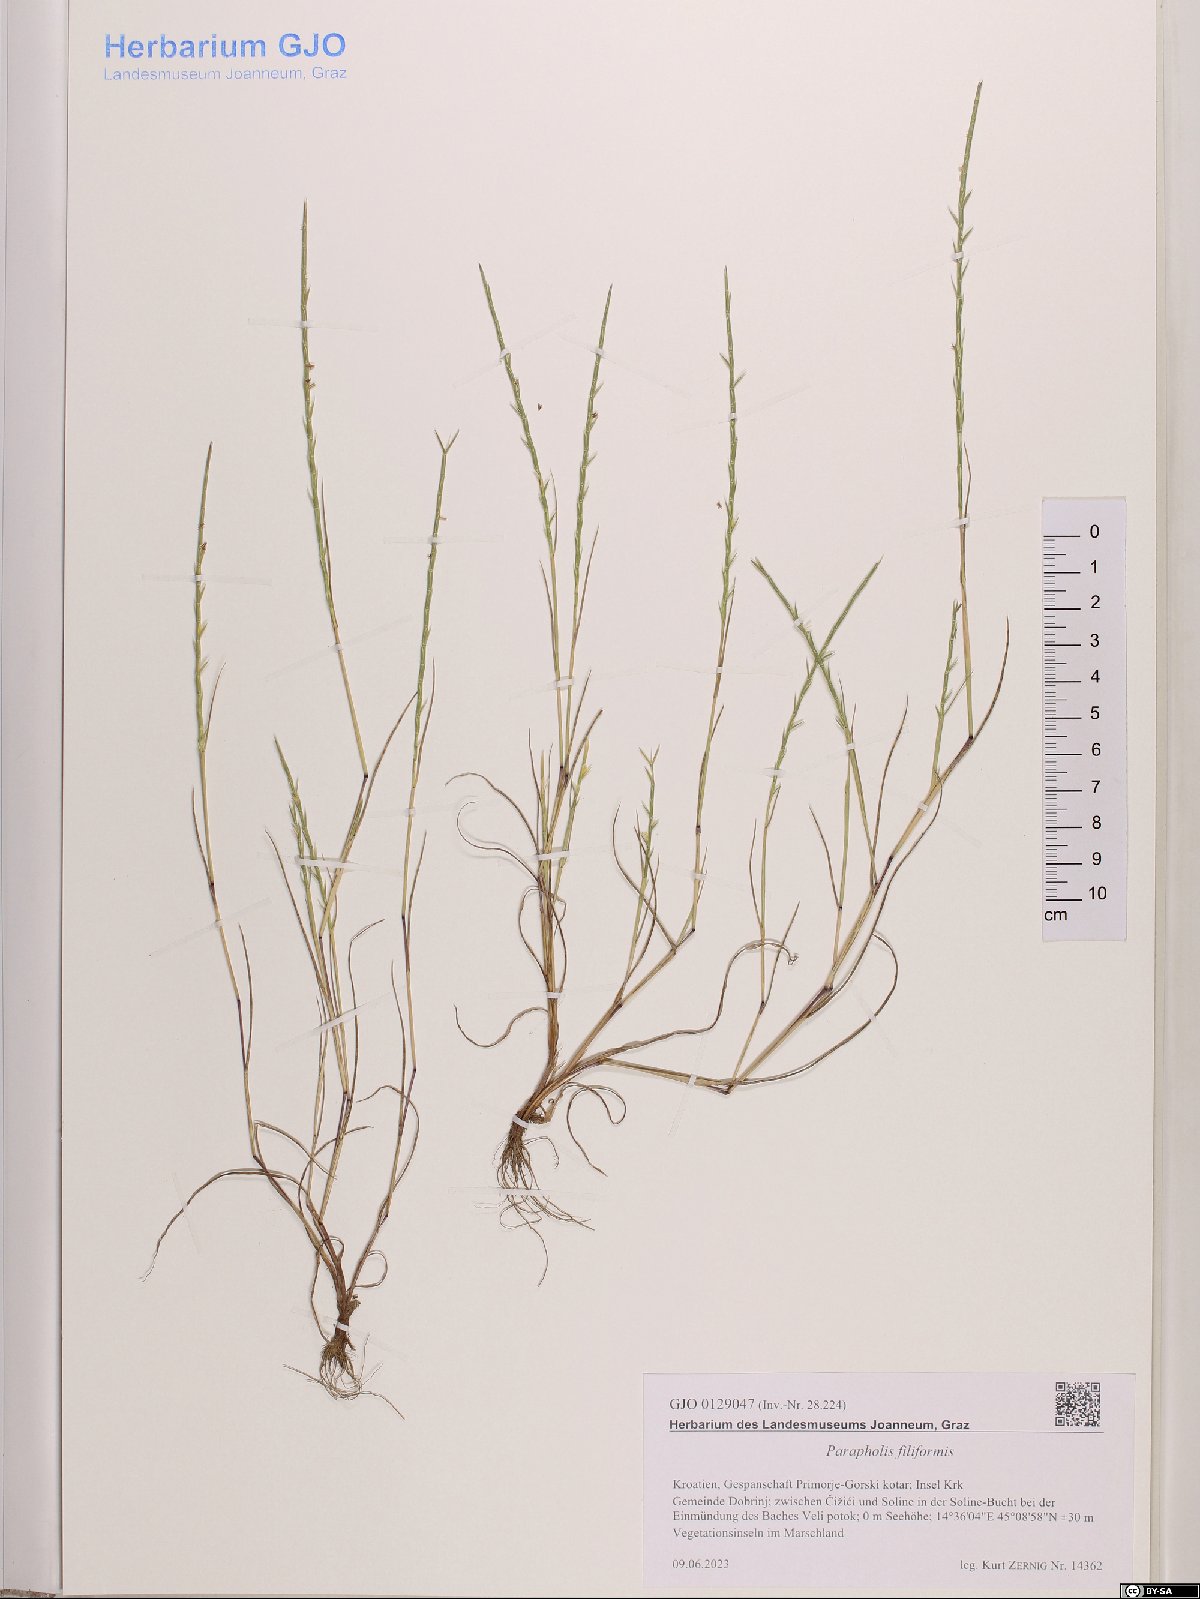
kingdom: Plantae
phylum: Tracheophyta
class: Liliopsida
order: Poales
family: Poaceae
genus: Parapholis
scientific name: Parapholis filiformis
